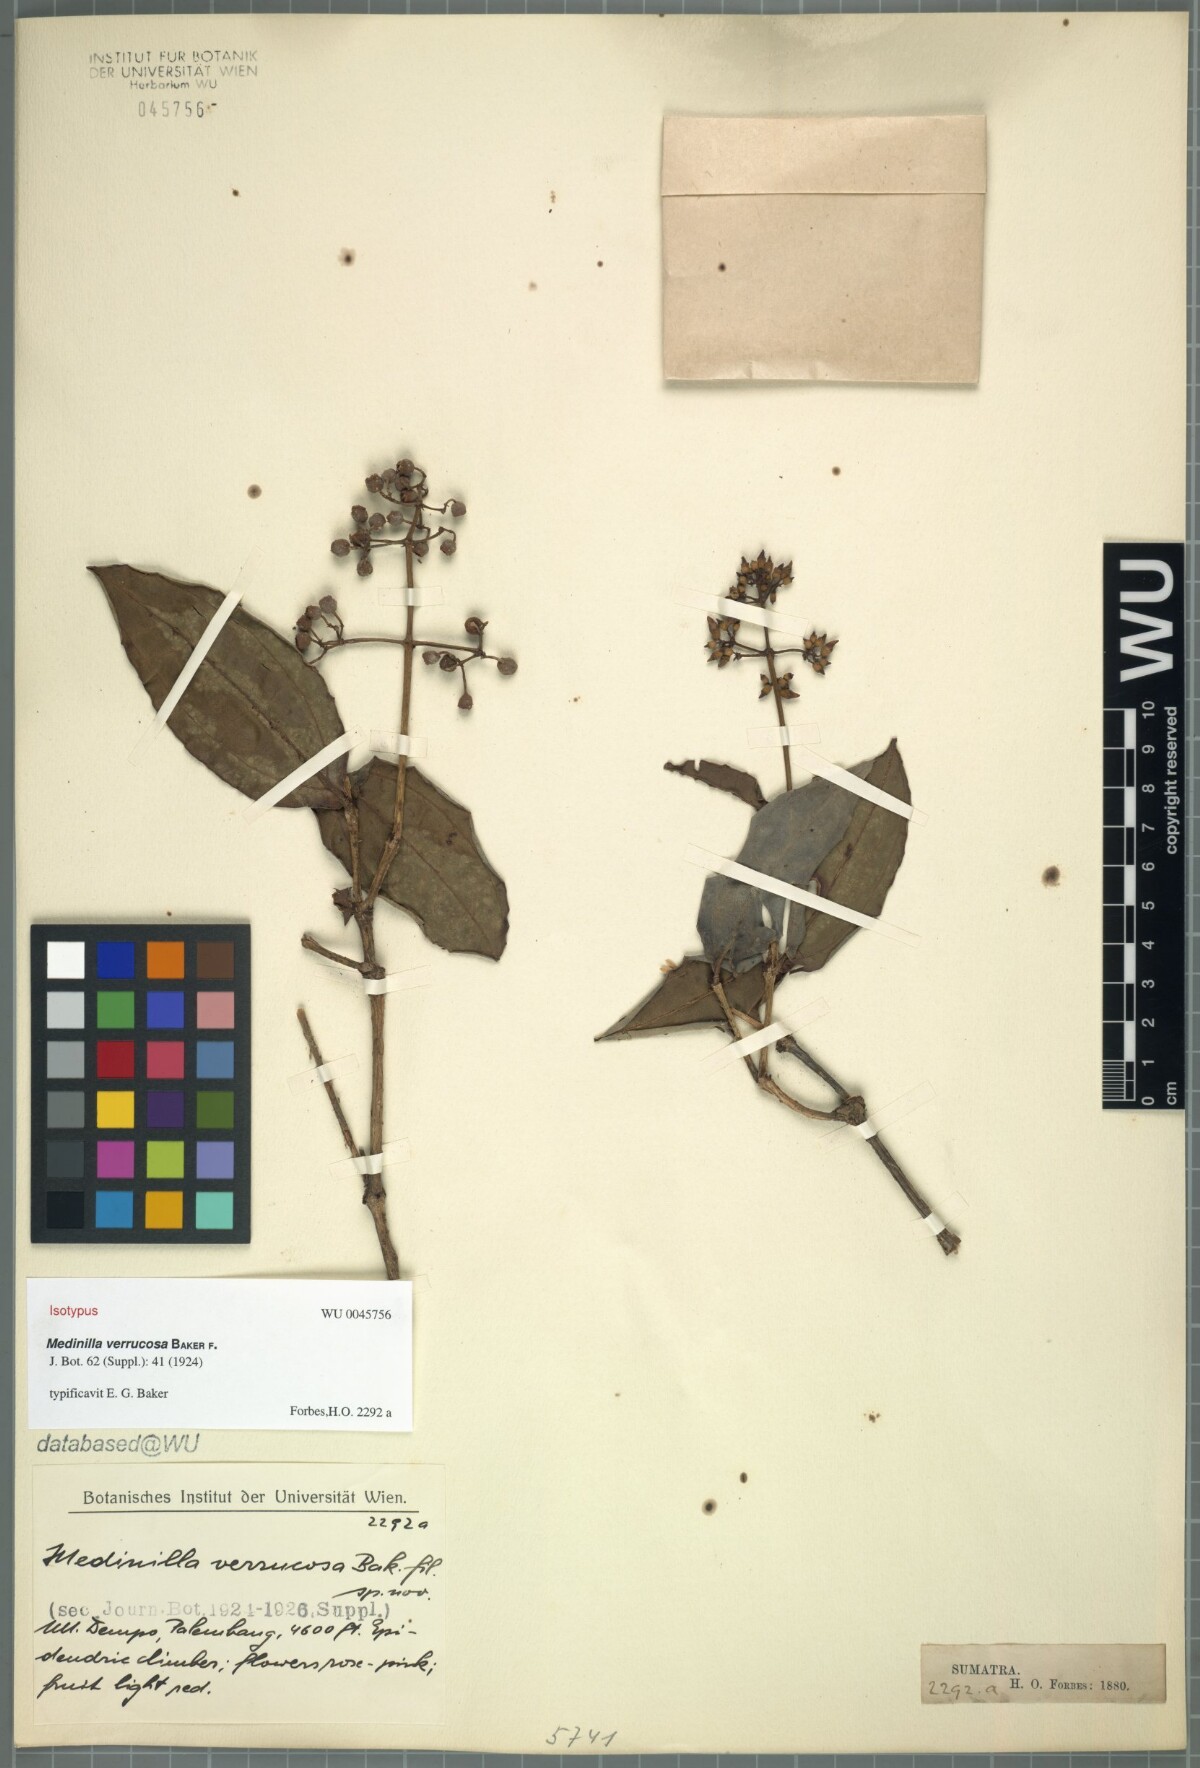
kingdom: Plantae
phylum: Tracheophyta
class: Magnoliopsida
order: Myrtales
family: Melastomataceae
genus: Medinilla
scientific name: Medinilla alpestris
